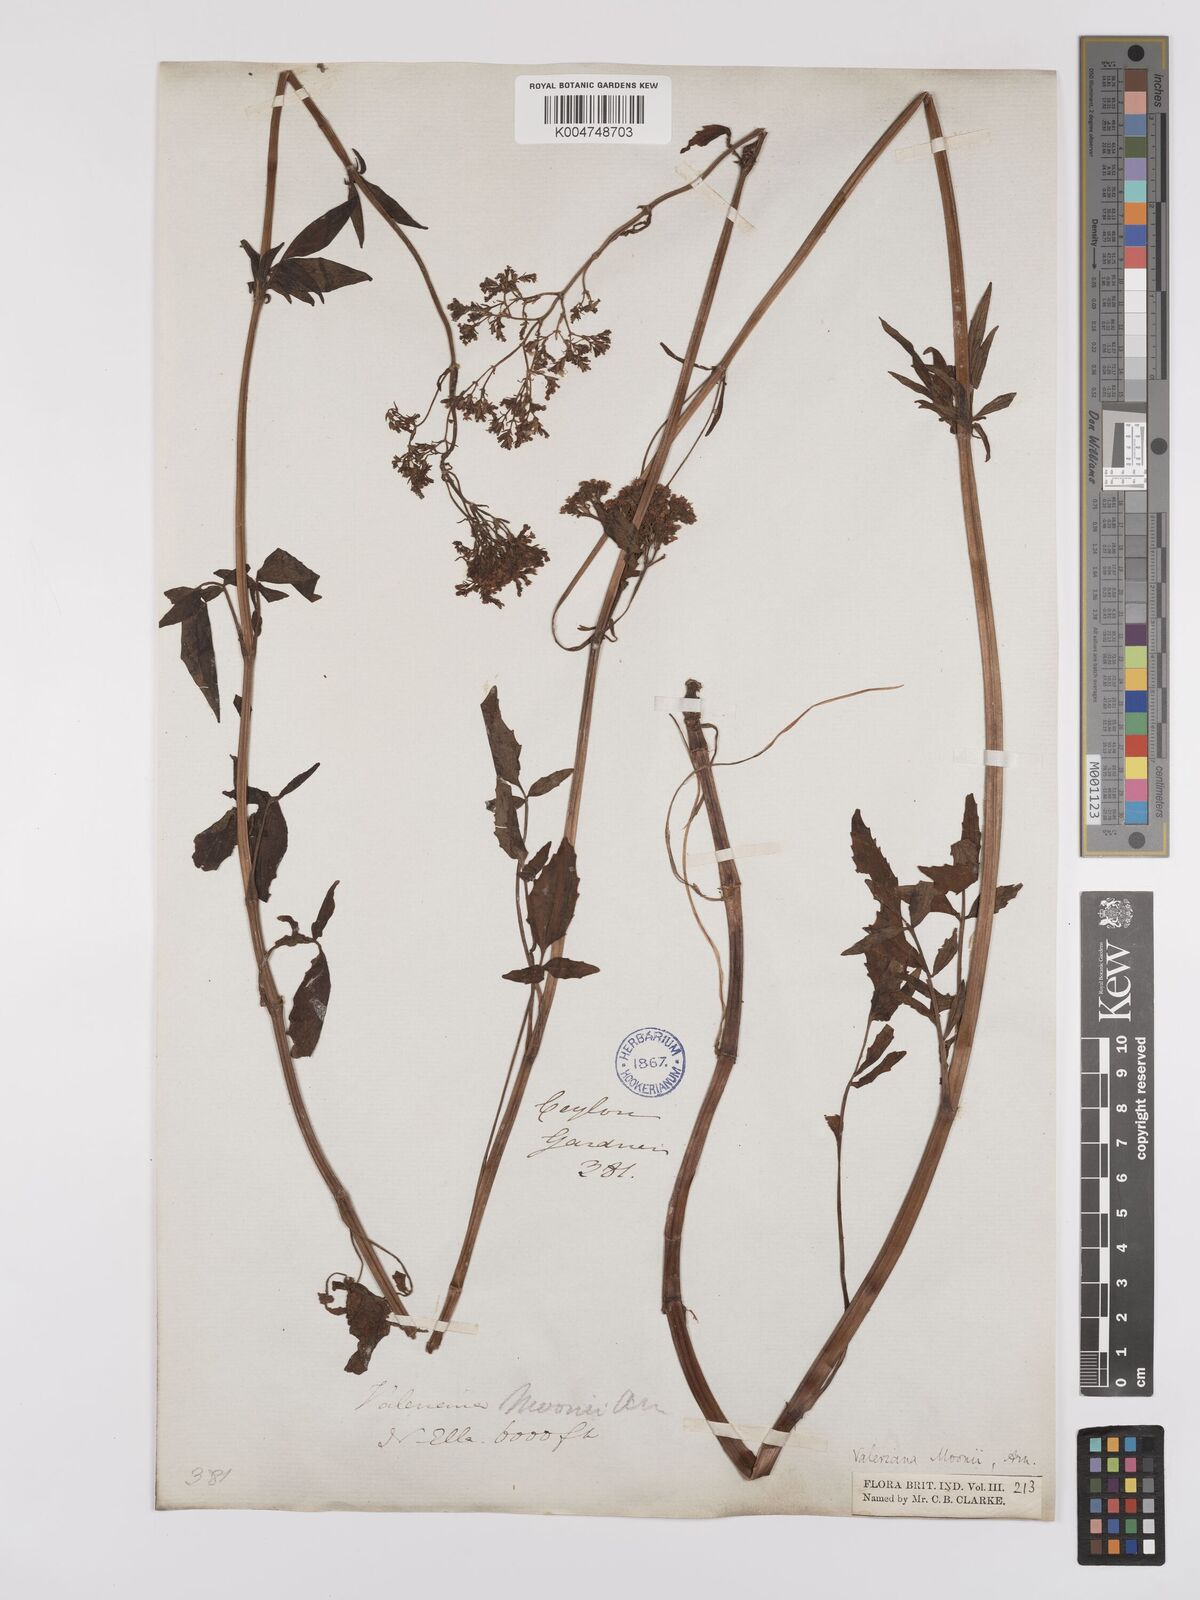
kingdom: Plantae
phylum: Tracheophyta
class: Magnoliopsida
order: Dipsacales
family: Caprifoliaceae
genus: Valeriana
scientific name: Valeriana moonii
